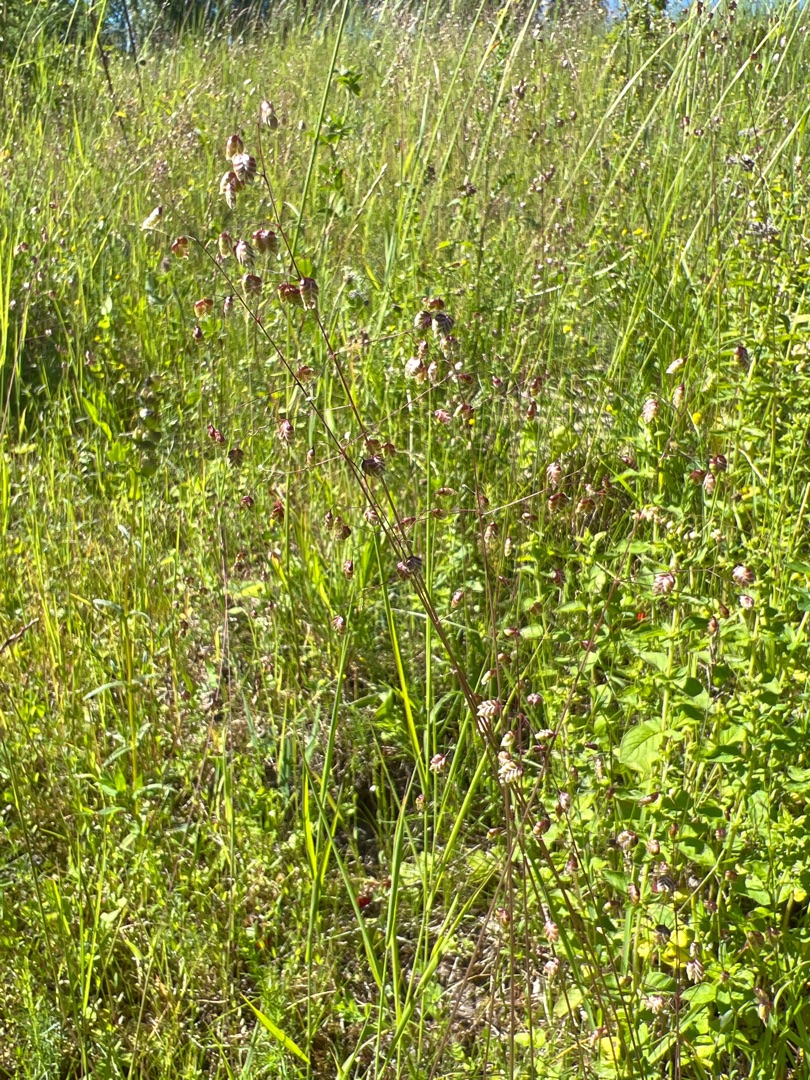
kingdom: Plantae
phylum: Tracheophyta
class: Liliopsida
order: Poales
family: Poaceae
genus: Briza
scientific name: Briza media
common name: Hjertegræs
